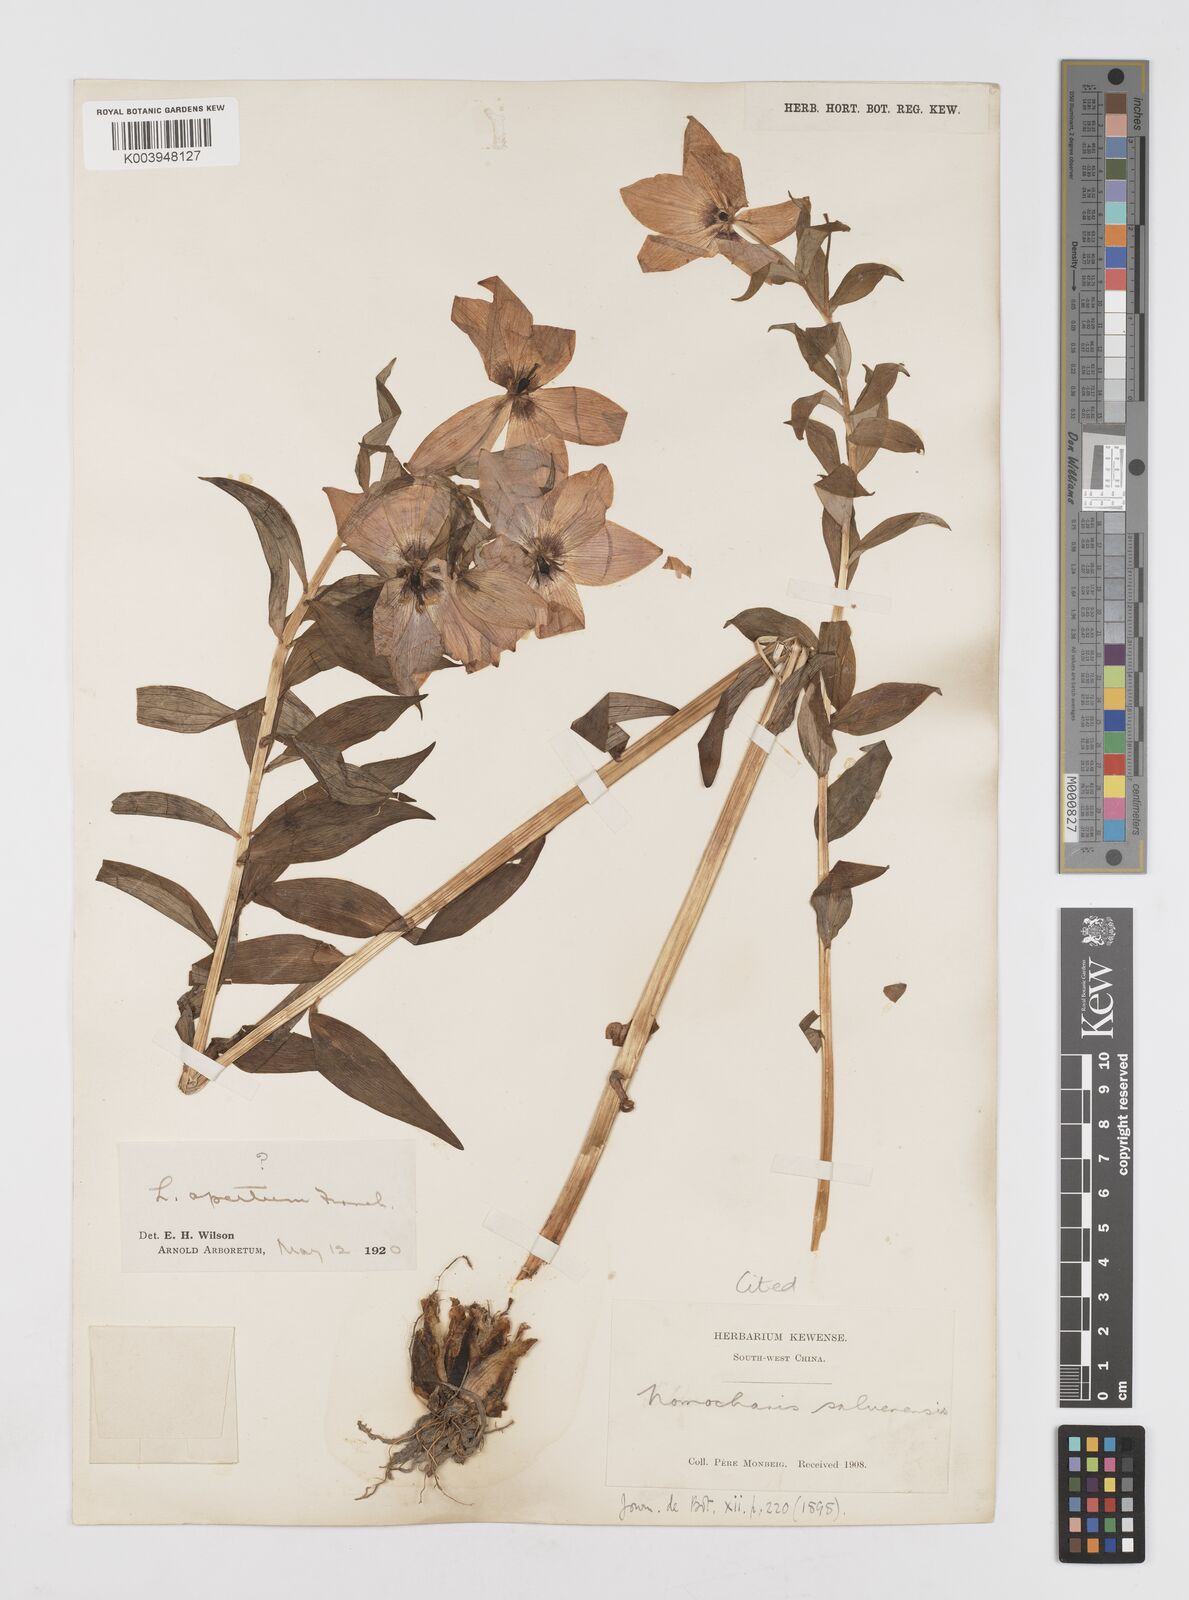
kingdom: Plantae
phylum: Tracheophyta
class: Liliopsida
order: Liliales
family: Liliaceae
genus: Lilium
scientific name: Lilium saluenense
